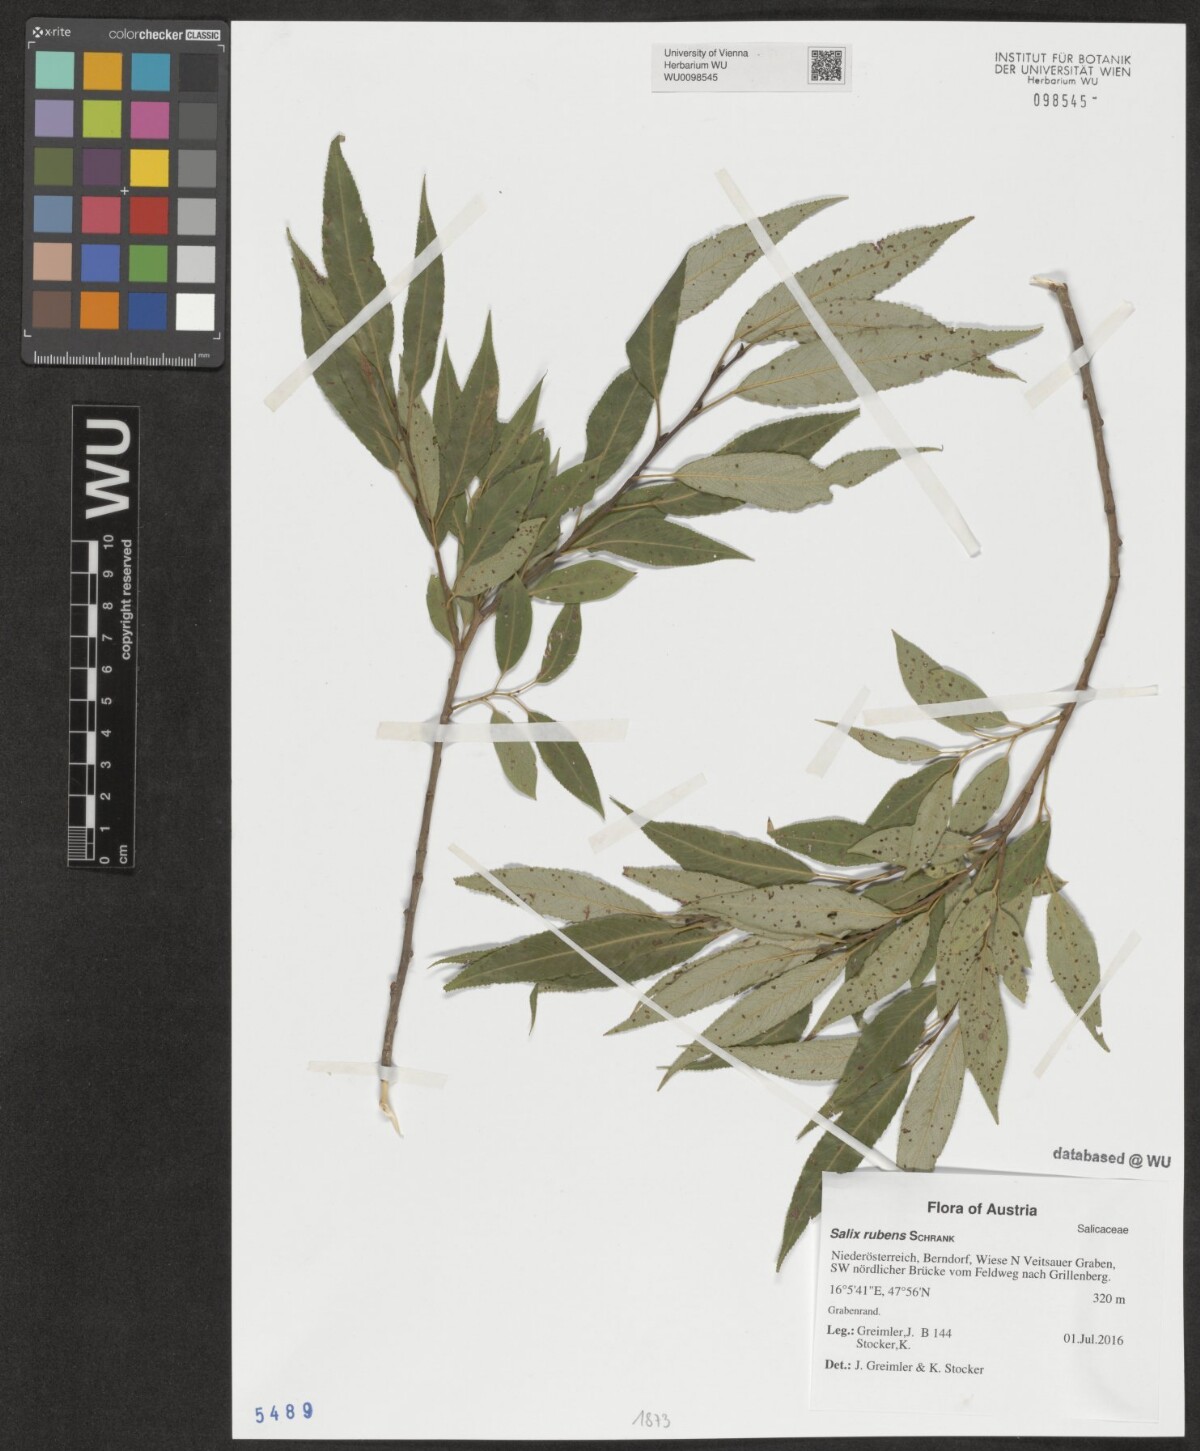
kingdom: Plantae
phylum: Tracheophyta
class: Magnoliopsida
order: Malpighiales
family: Salicaceae
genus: Salix
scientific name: Salix rubens
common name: Hybrid crack willow
